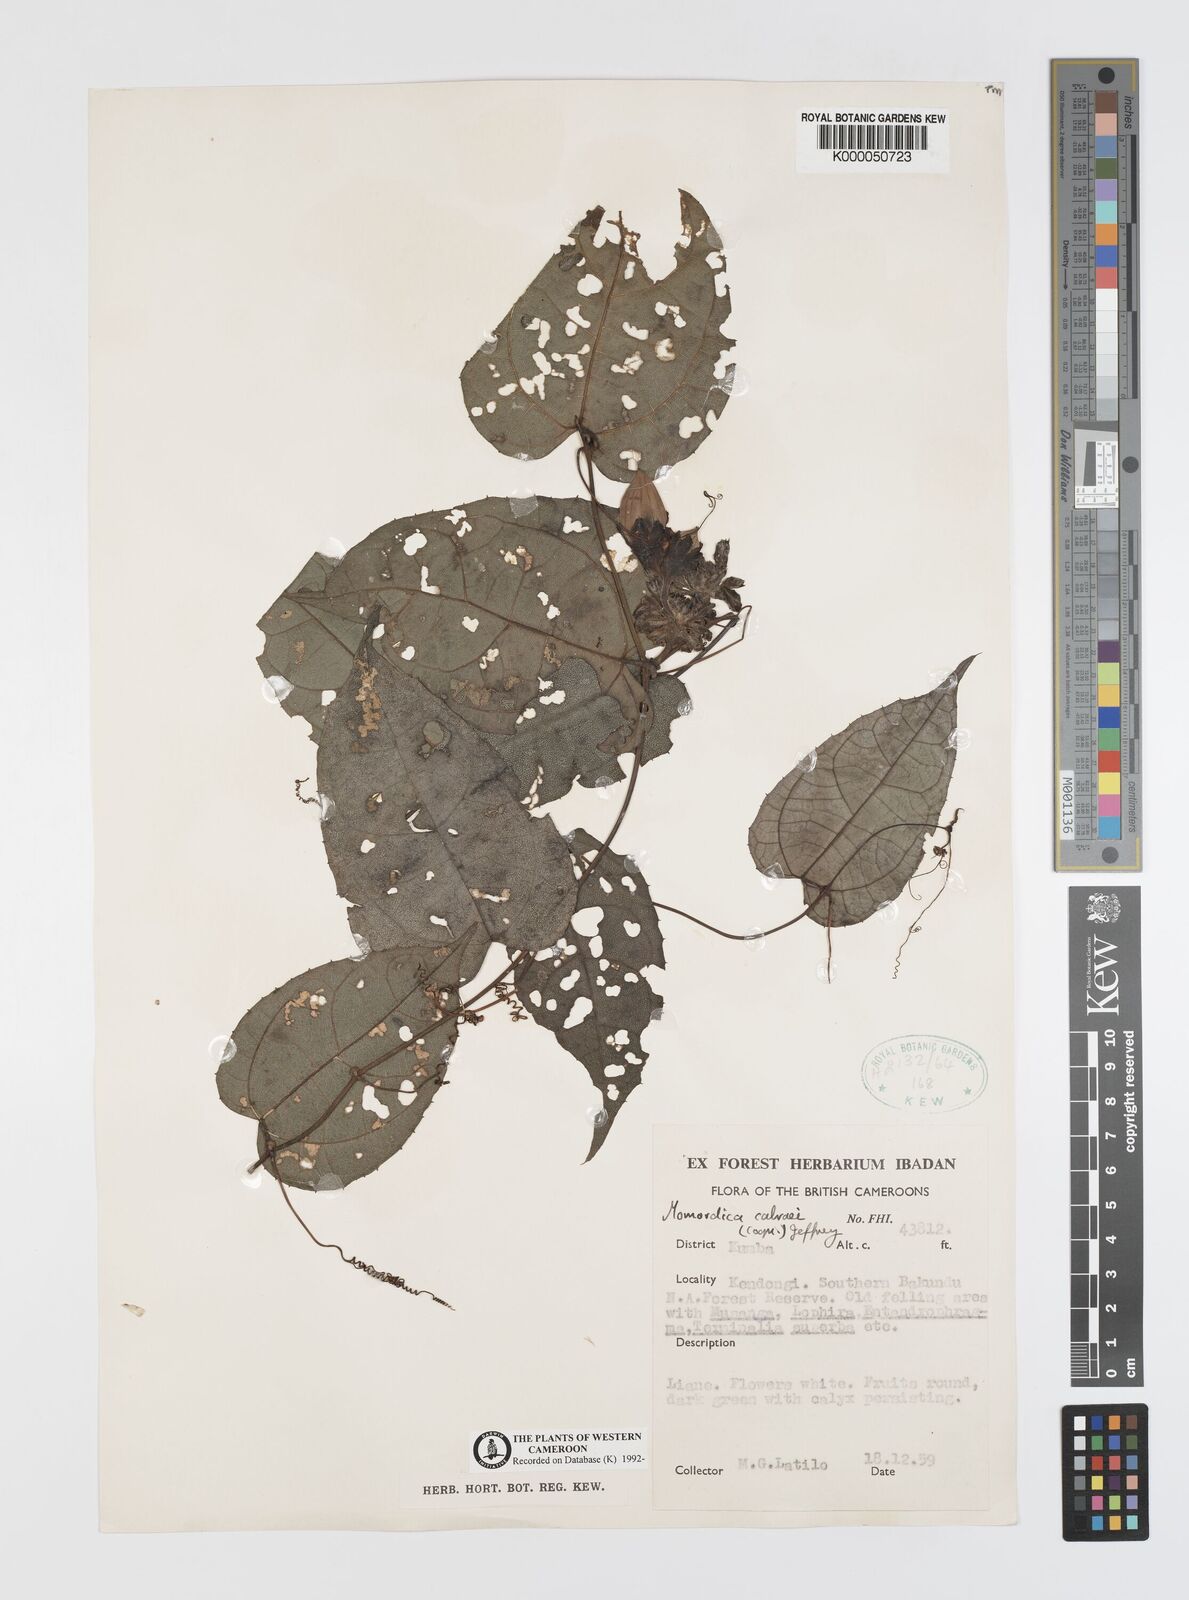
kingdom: Plantae
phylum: Tracheophyta
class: Magnoliopsida
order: Cucurbitales
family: Cucurbitaceae
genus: Momordica
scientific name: Momordica
